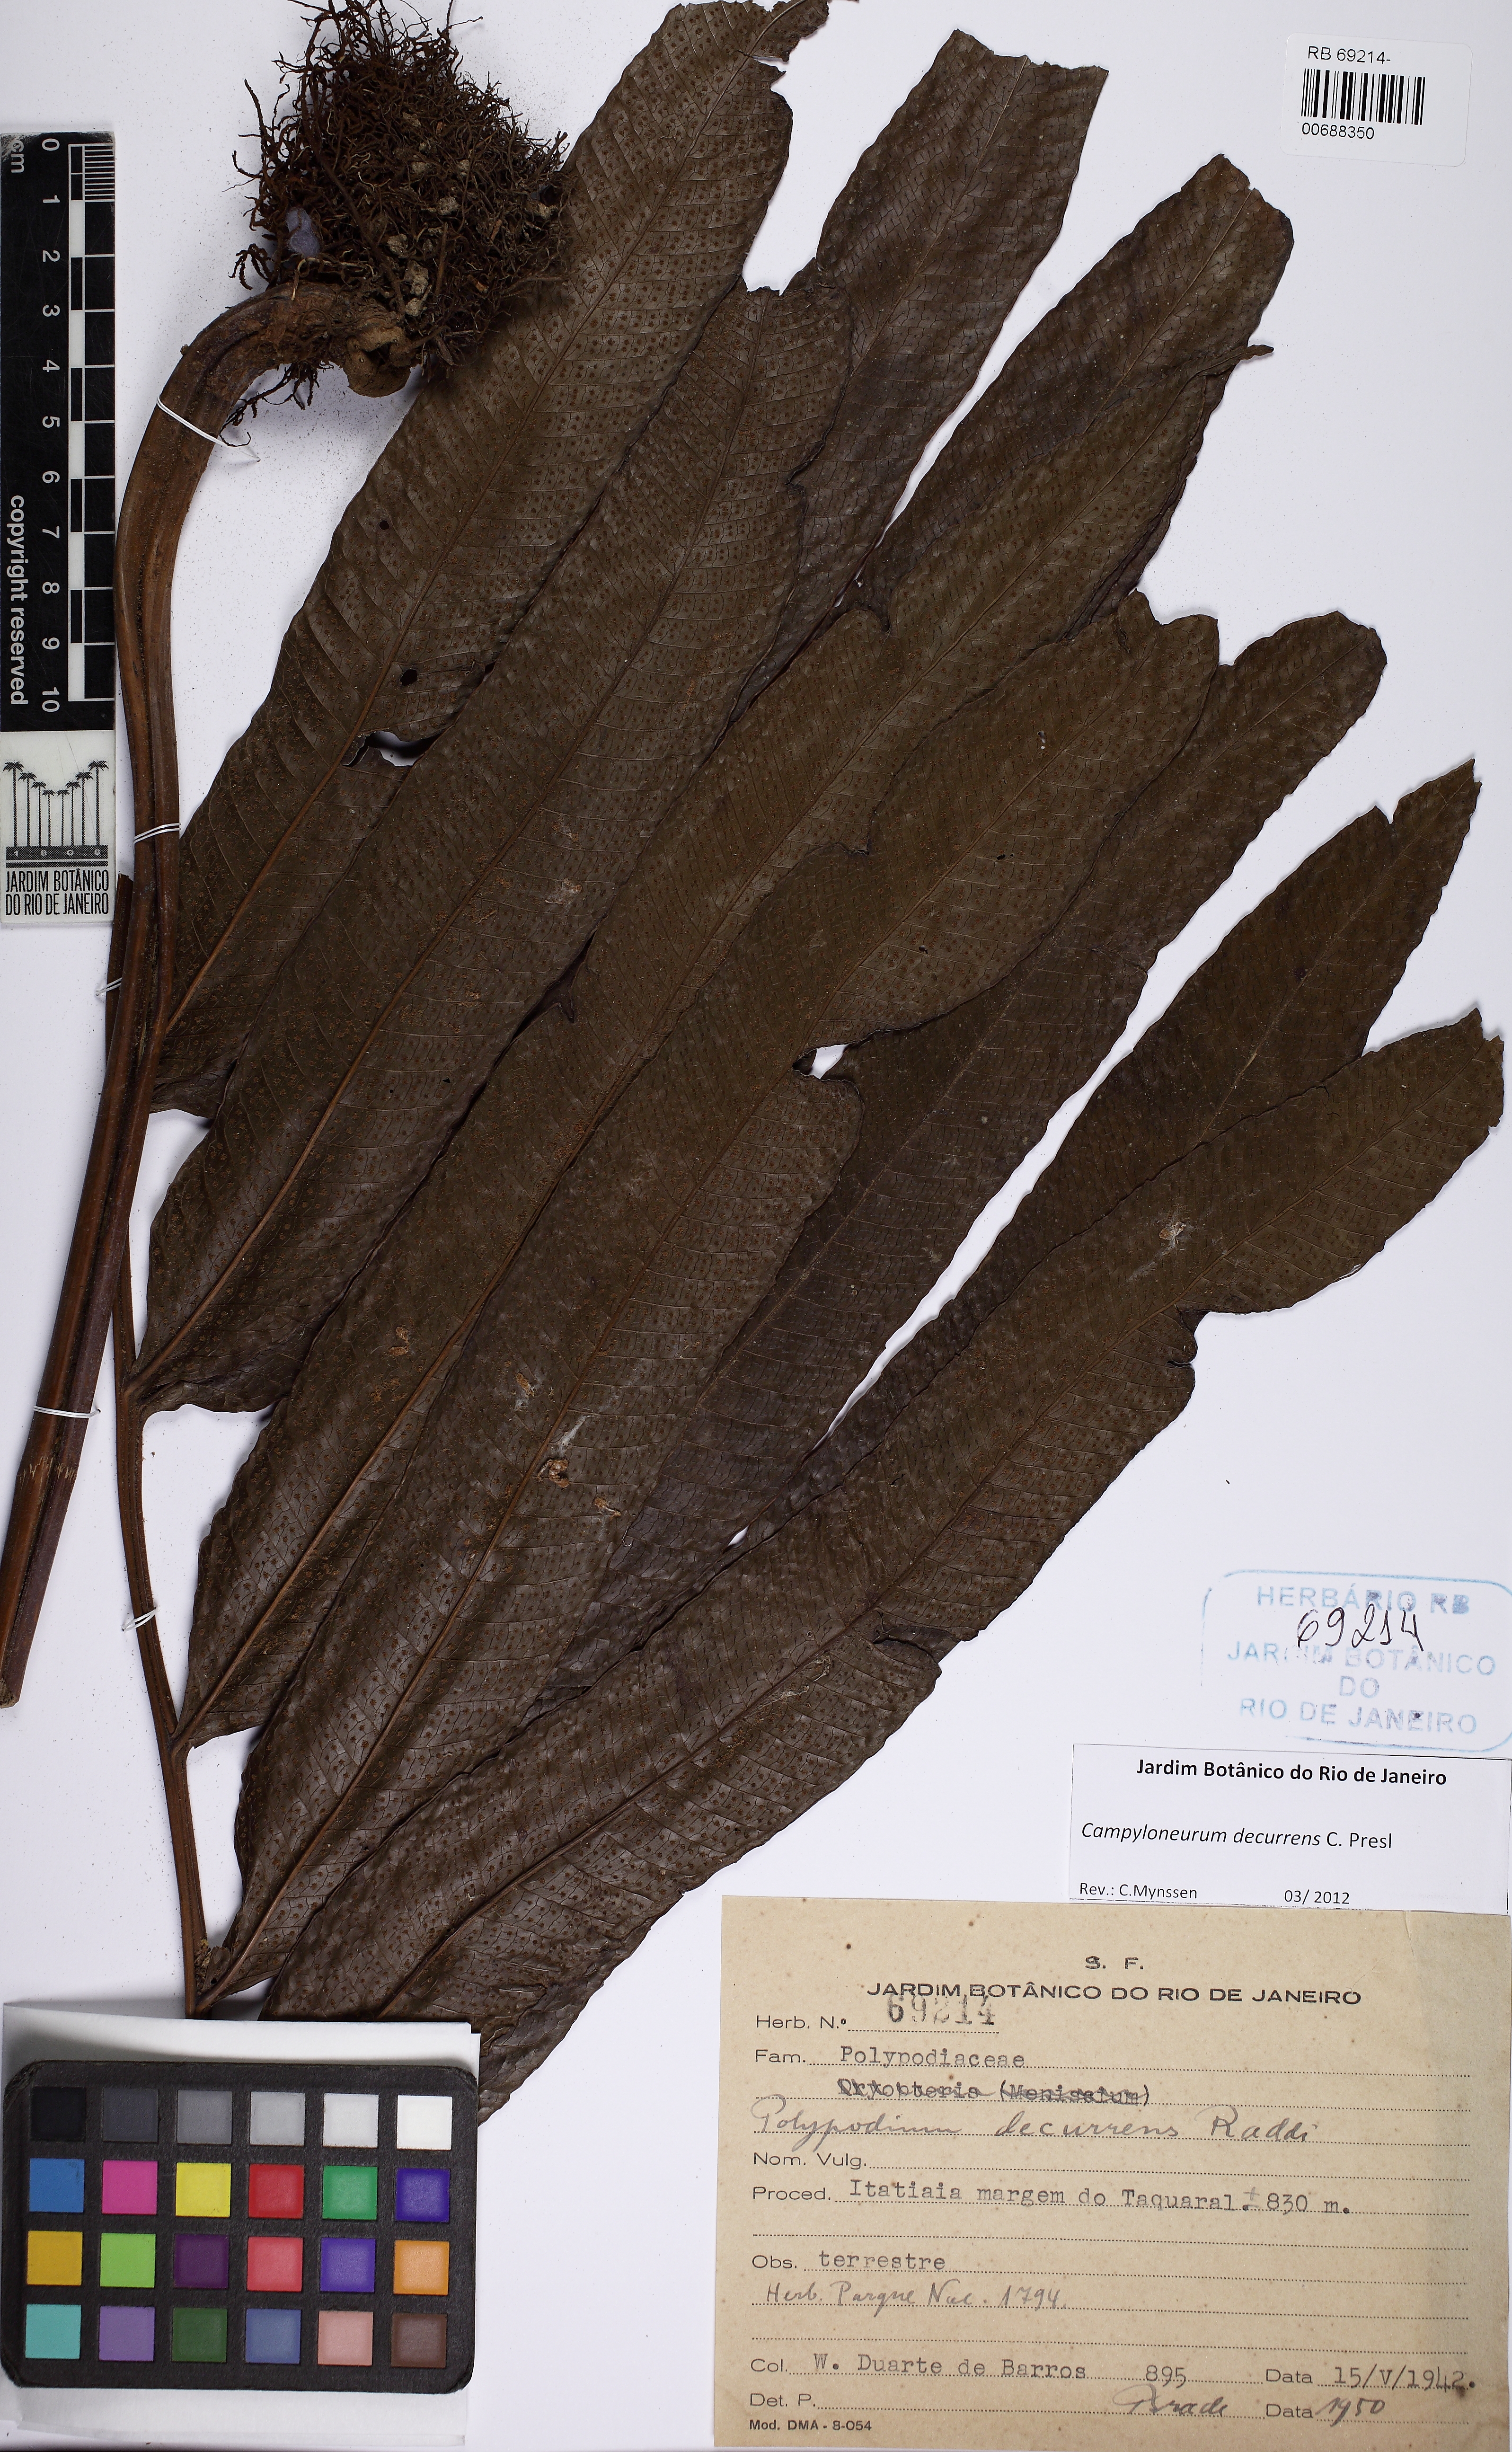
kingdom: Plantae
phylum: Tracheophyta
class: Polypodiopsida
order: Polypodiales
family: Polypodiaceae
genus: Campyloneurum
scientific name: Campyloneurum decurrens
